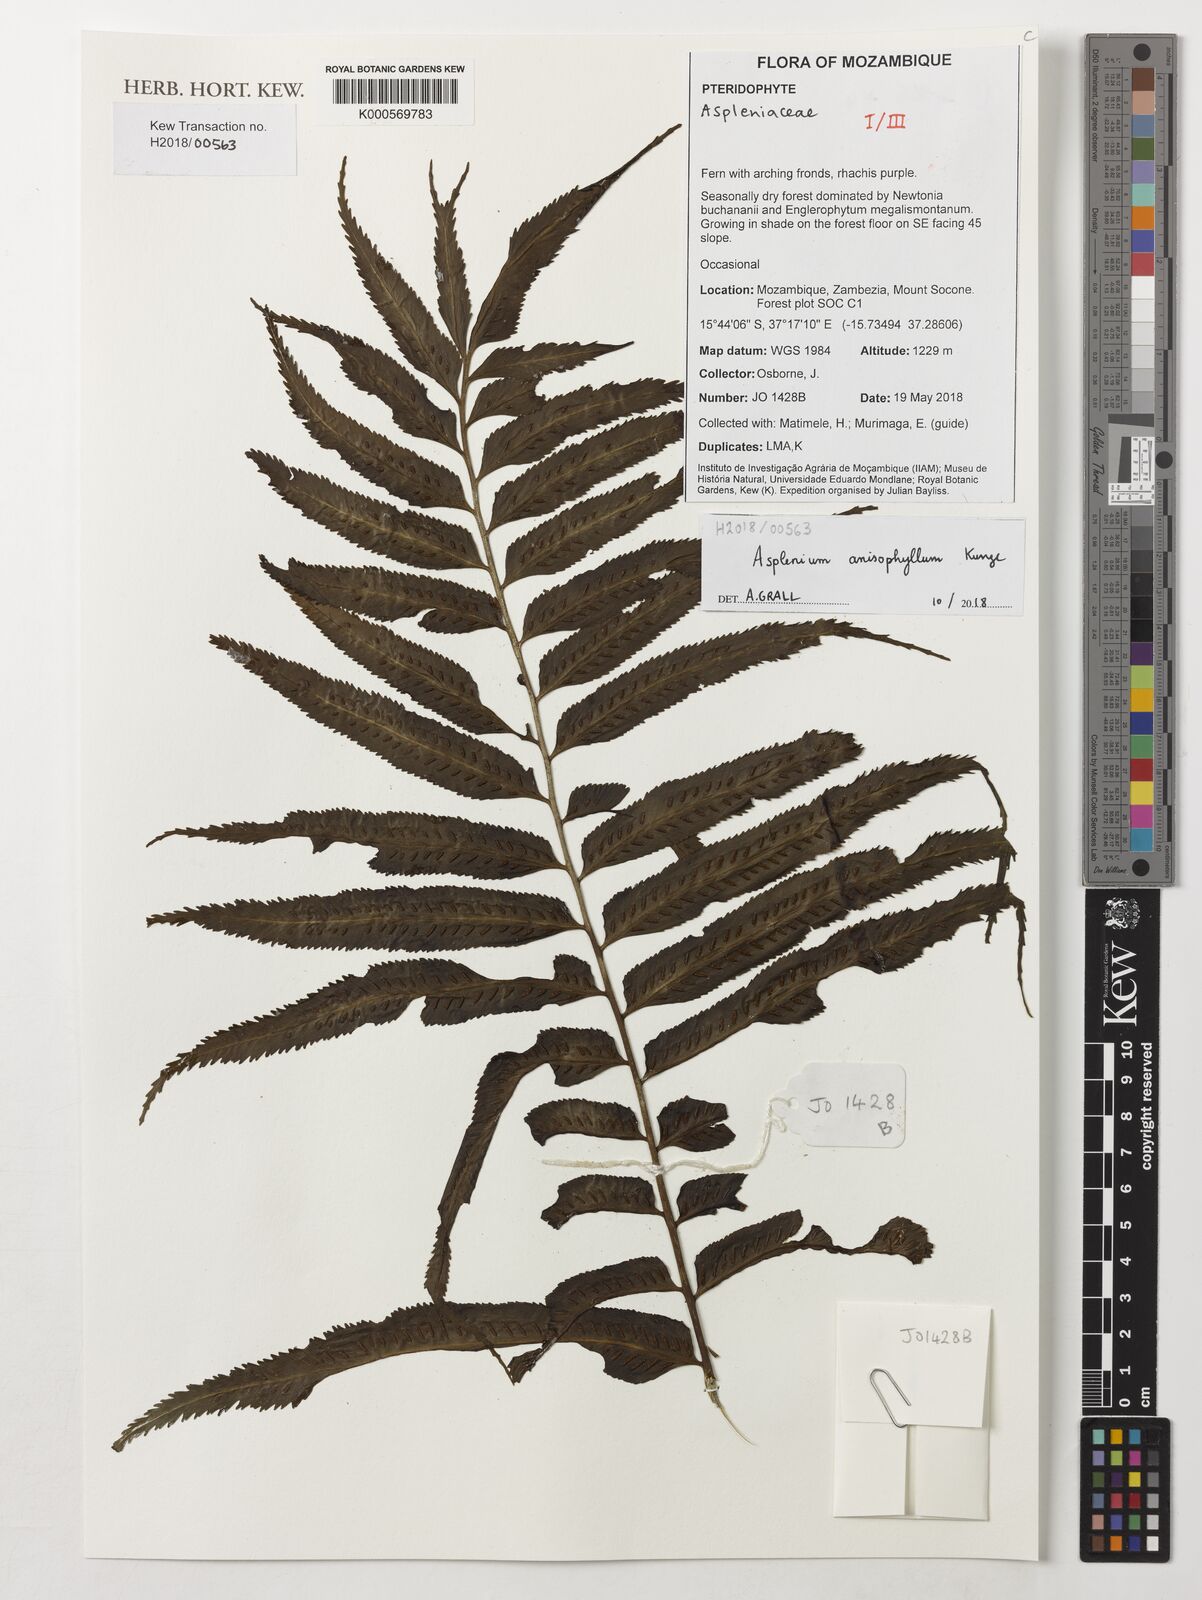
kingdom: Plantae
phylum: Tracheophyta
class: Polypodiopsida
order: Polypodiales
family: Aspleniaceae
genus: Asplenium
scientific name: Asplenium anisophyllum
